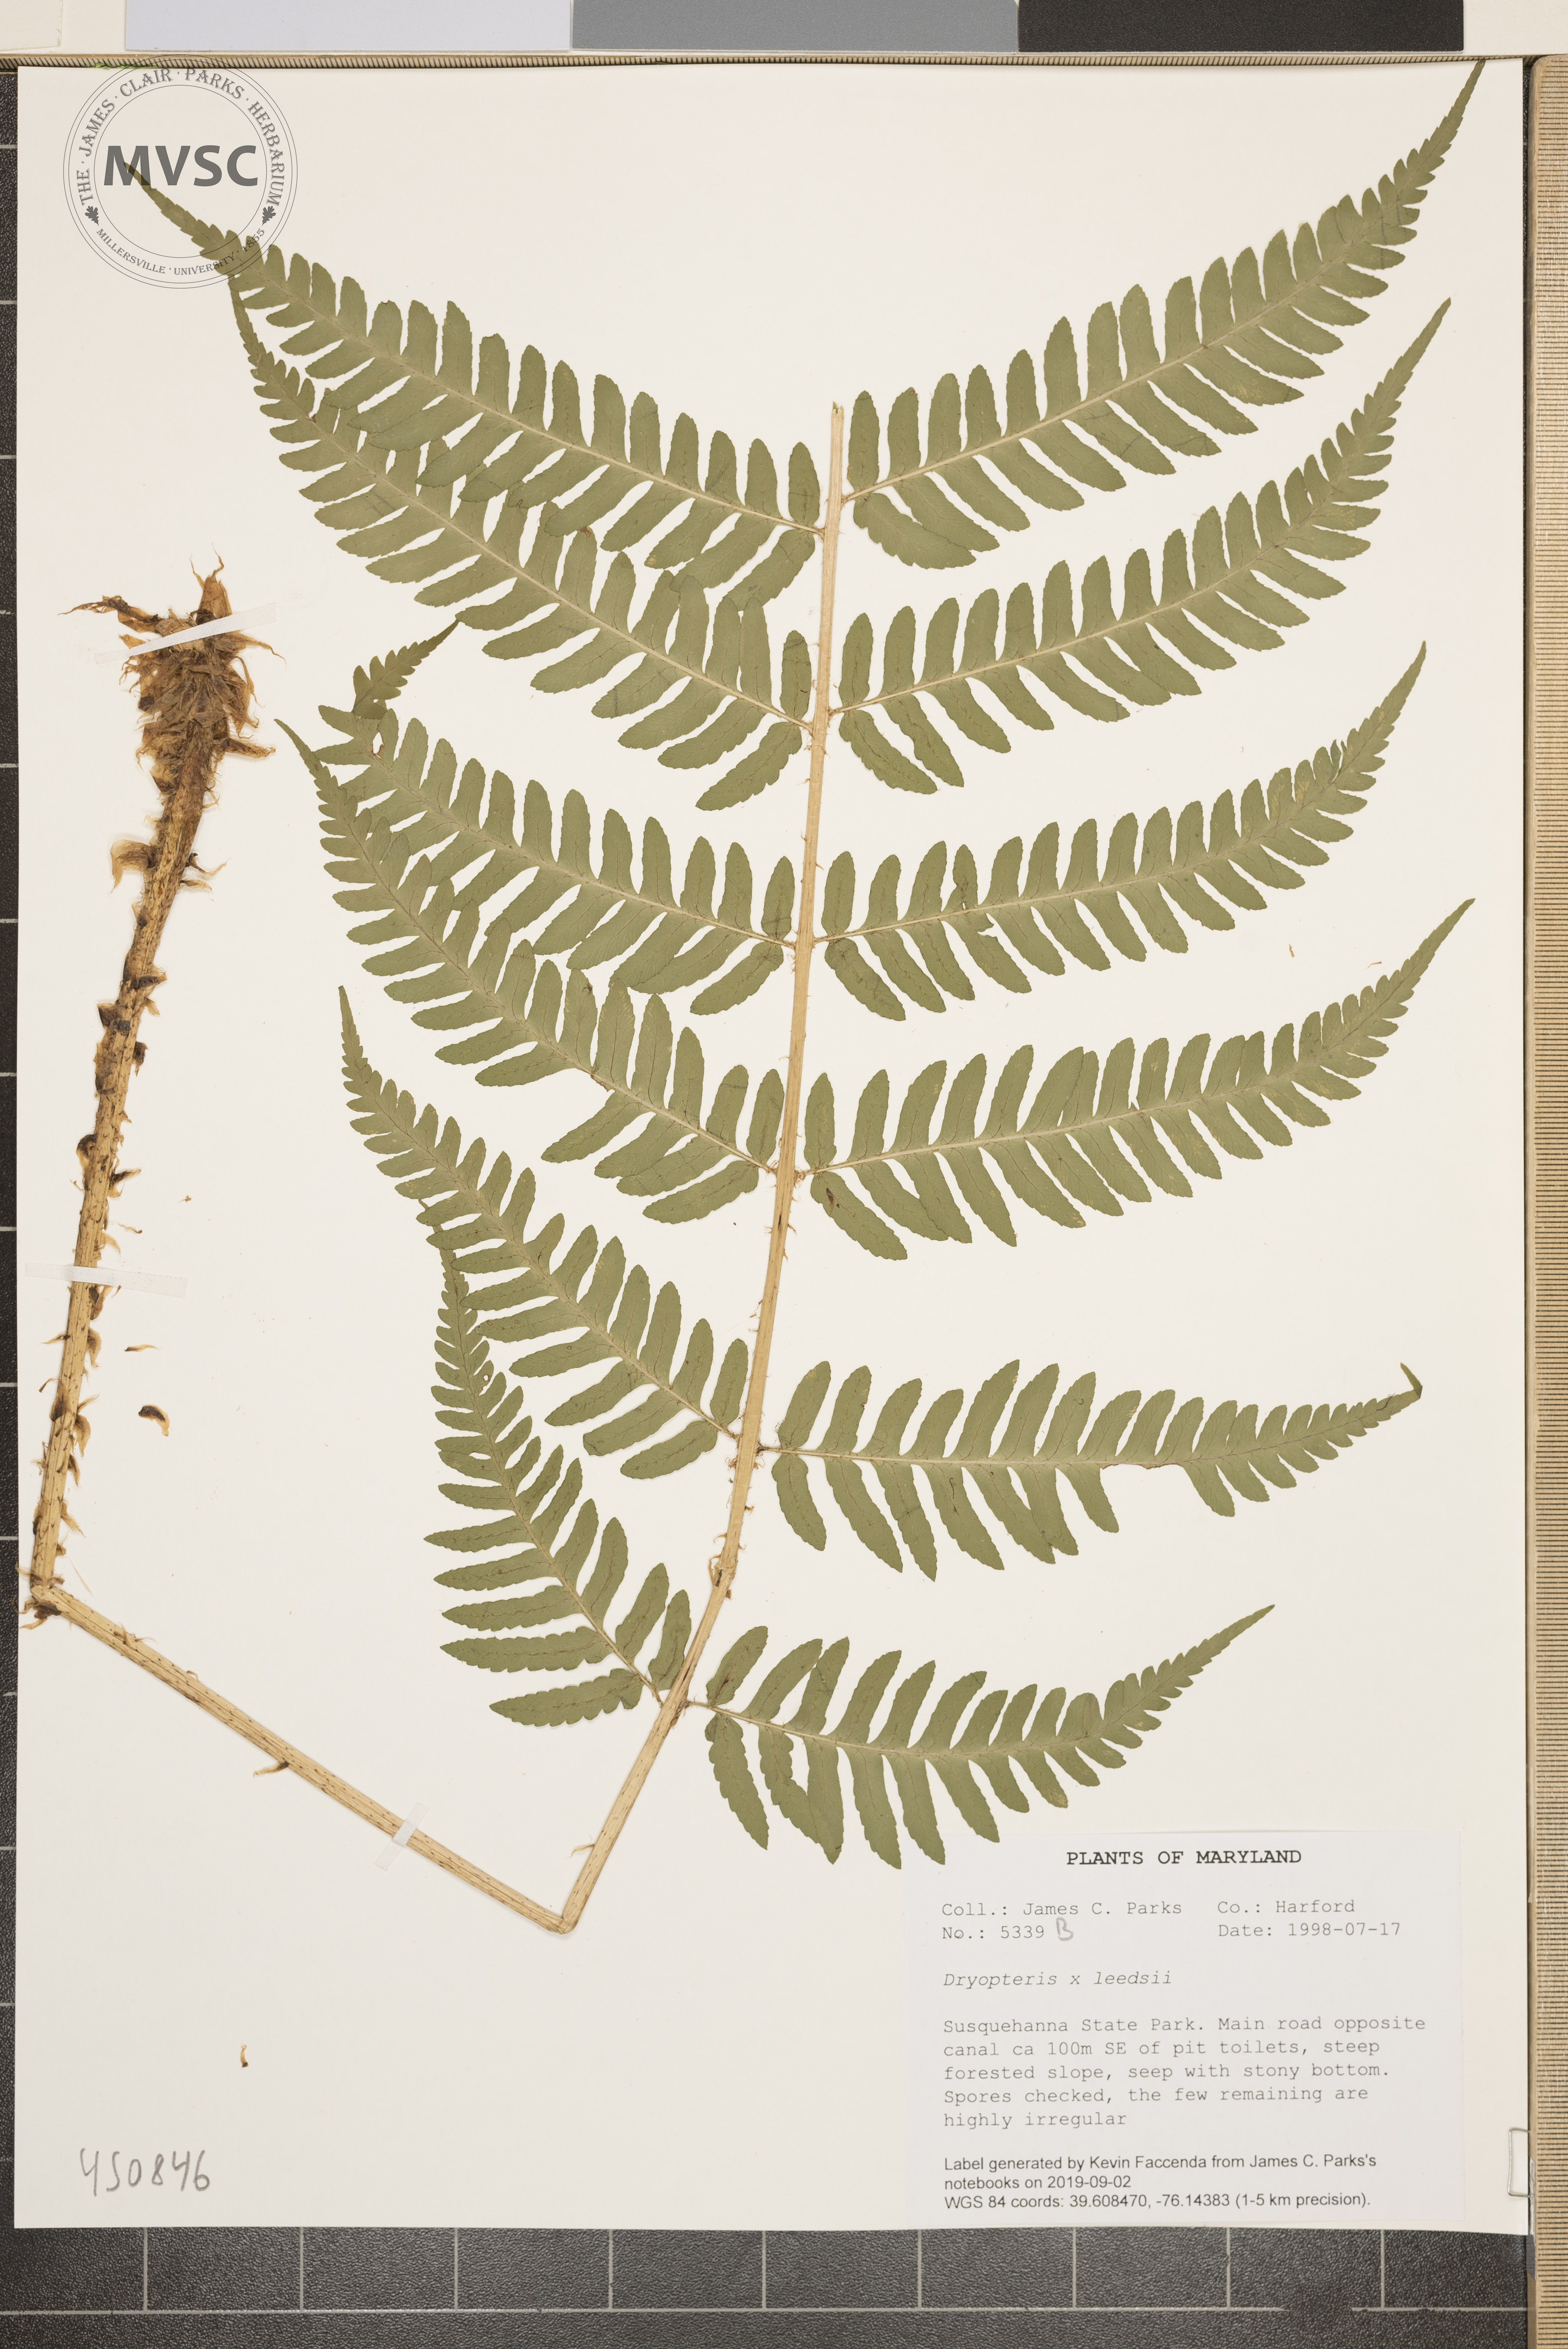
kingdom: Plantae
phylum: Tracheophyta
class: Polypodiopsida
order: Polypodiales
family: Dryopteridaceae
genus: Dryopteris
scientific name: Dryopteris leedsii
